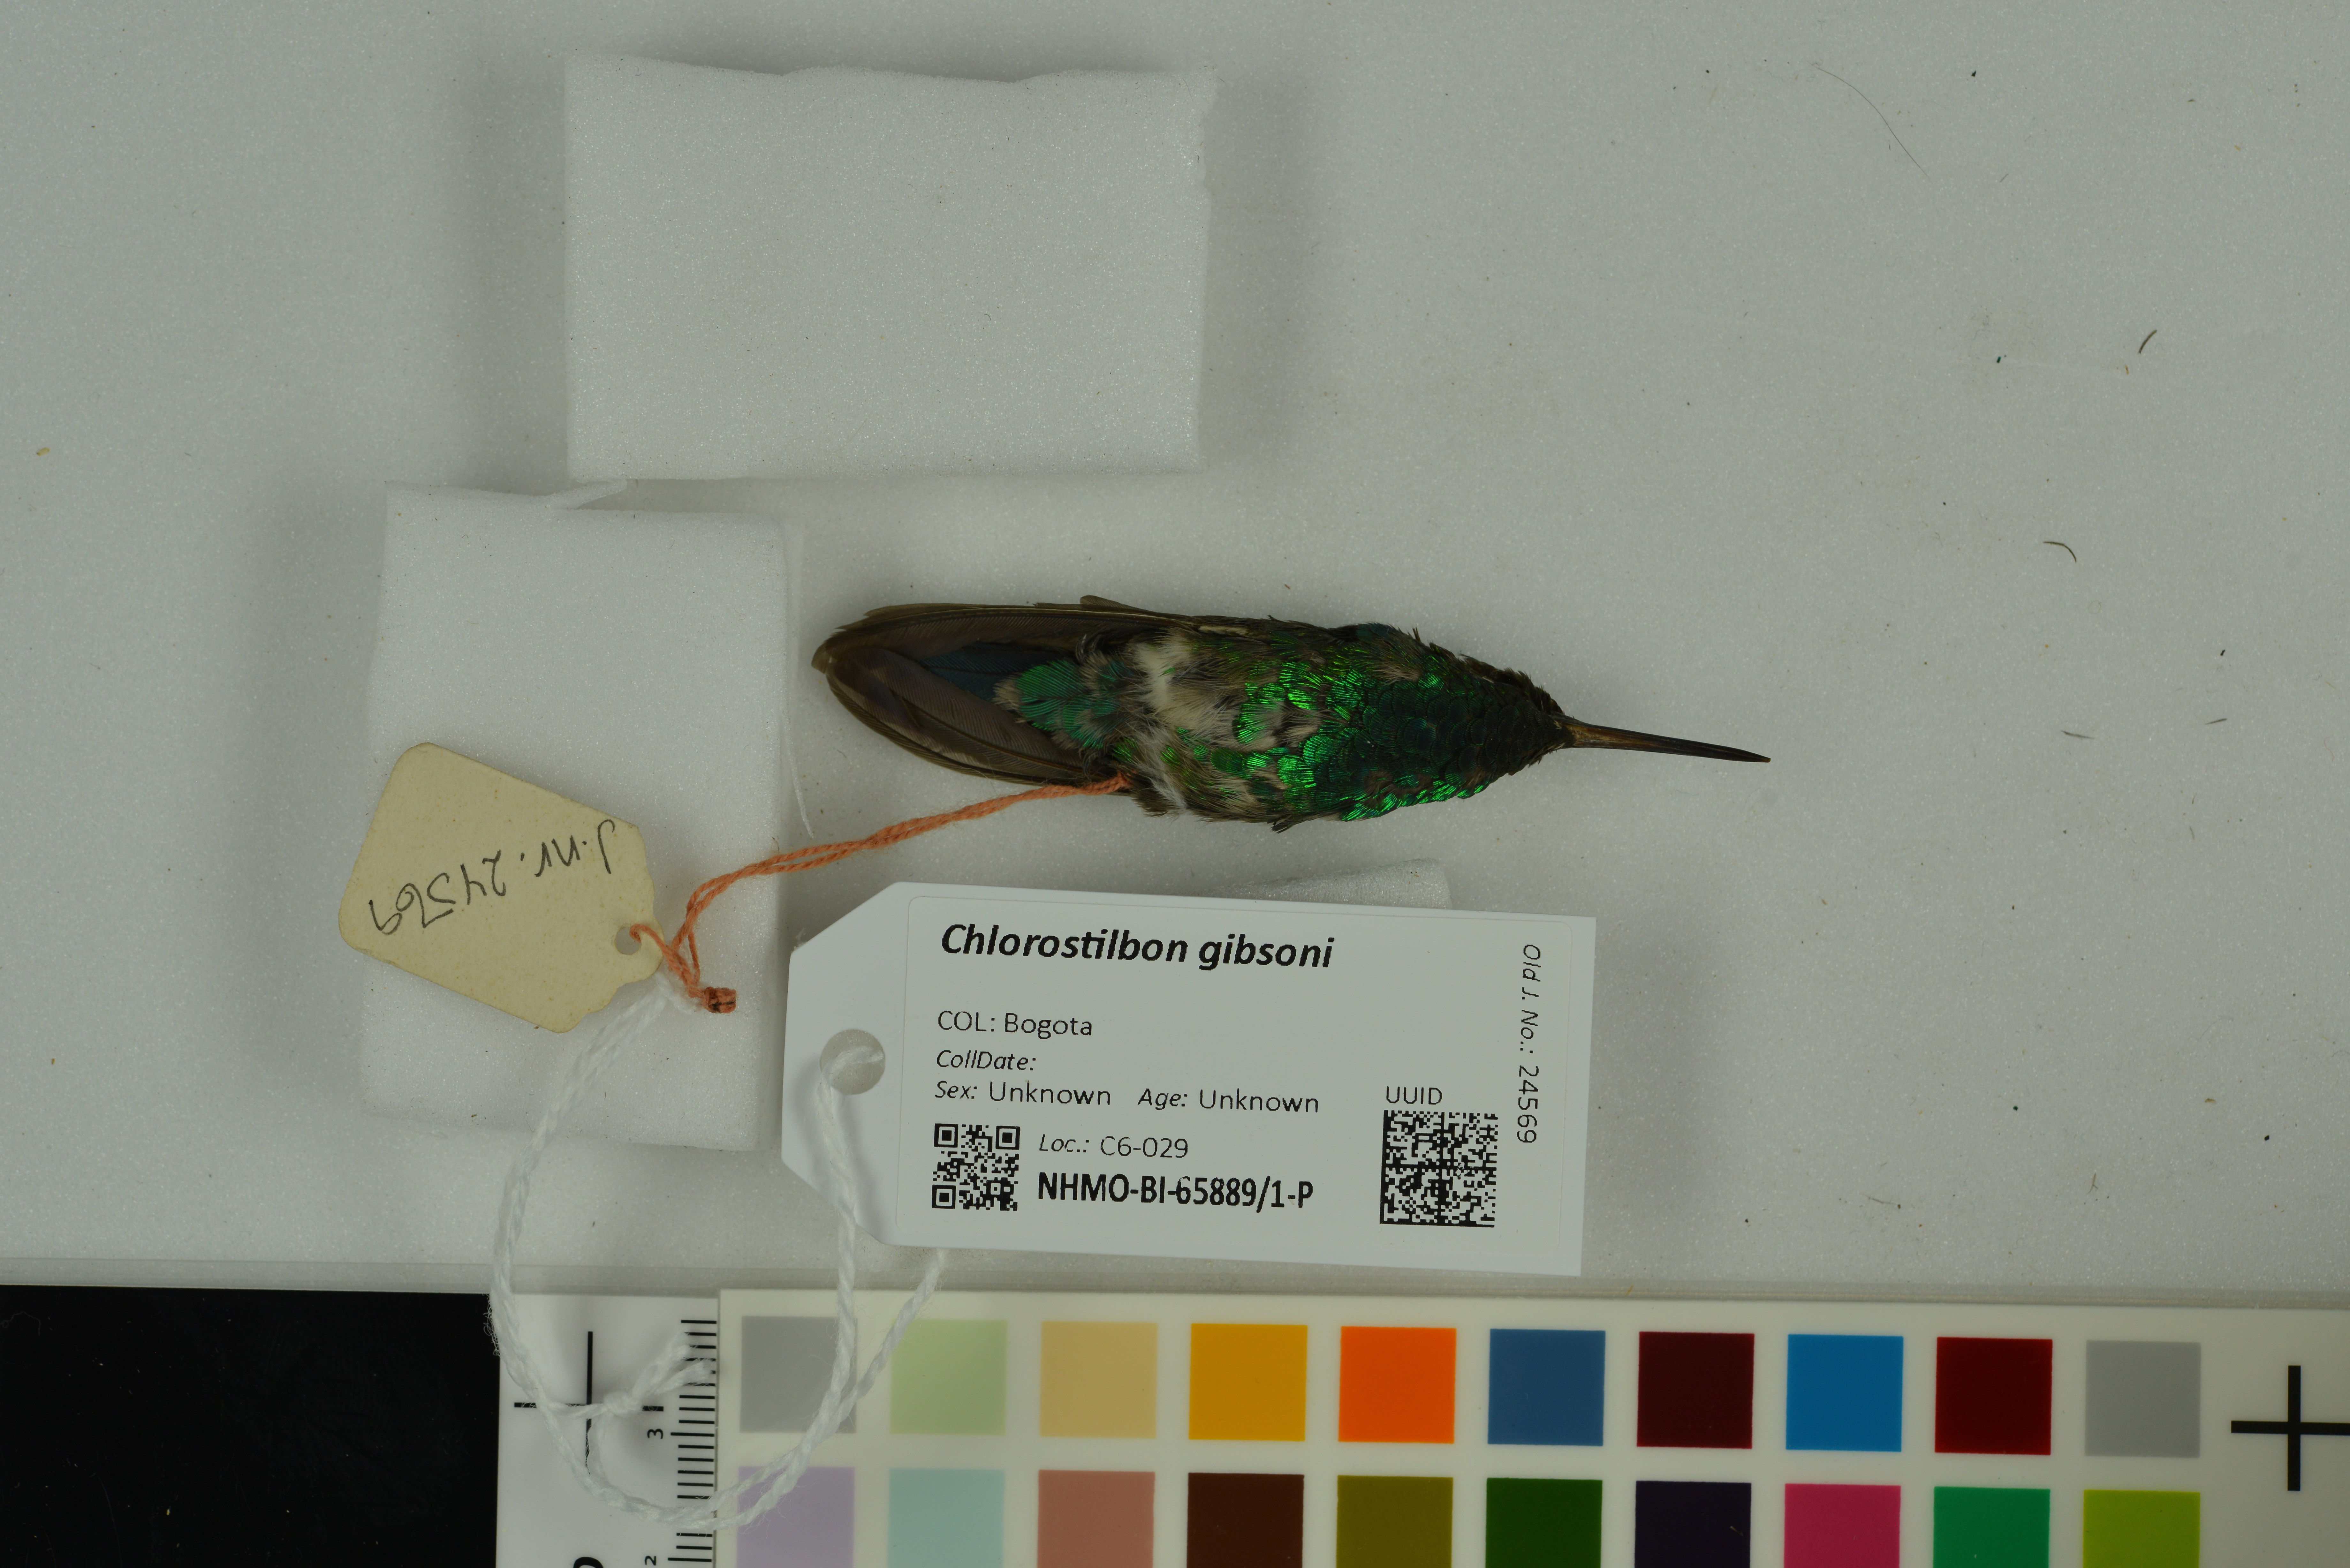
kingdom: Animalia
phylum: Chordata
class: Aves
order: Apodiformes
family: Trochilidae
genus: Chlorostilbon
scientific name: Chlorostilbon gibsoni
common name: Red-billed emerald
